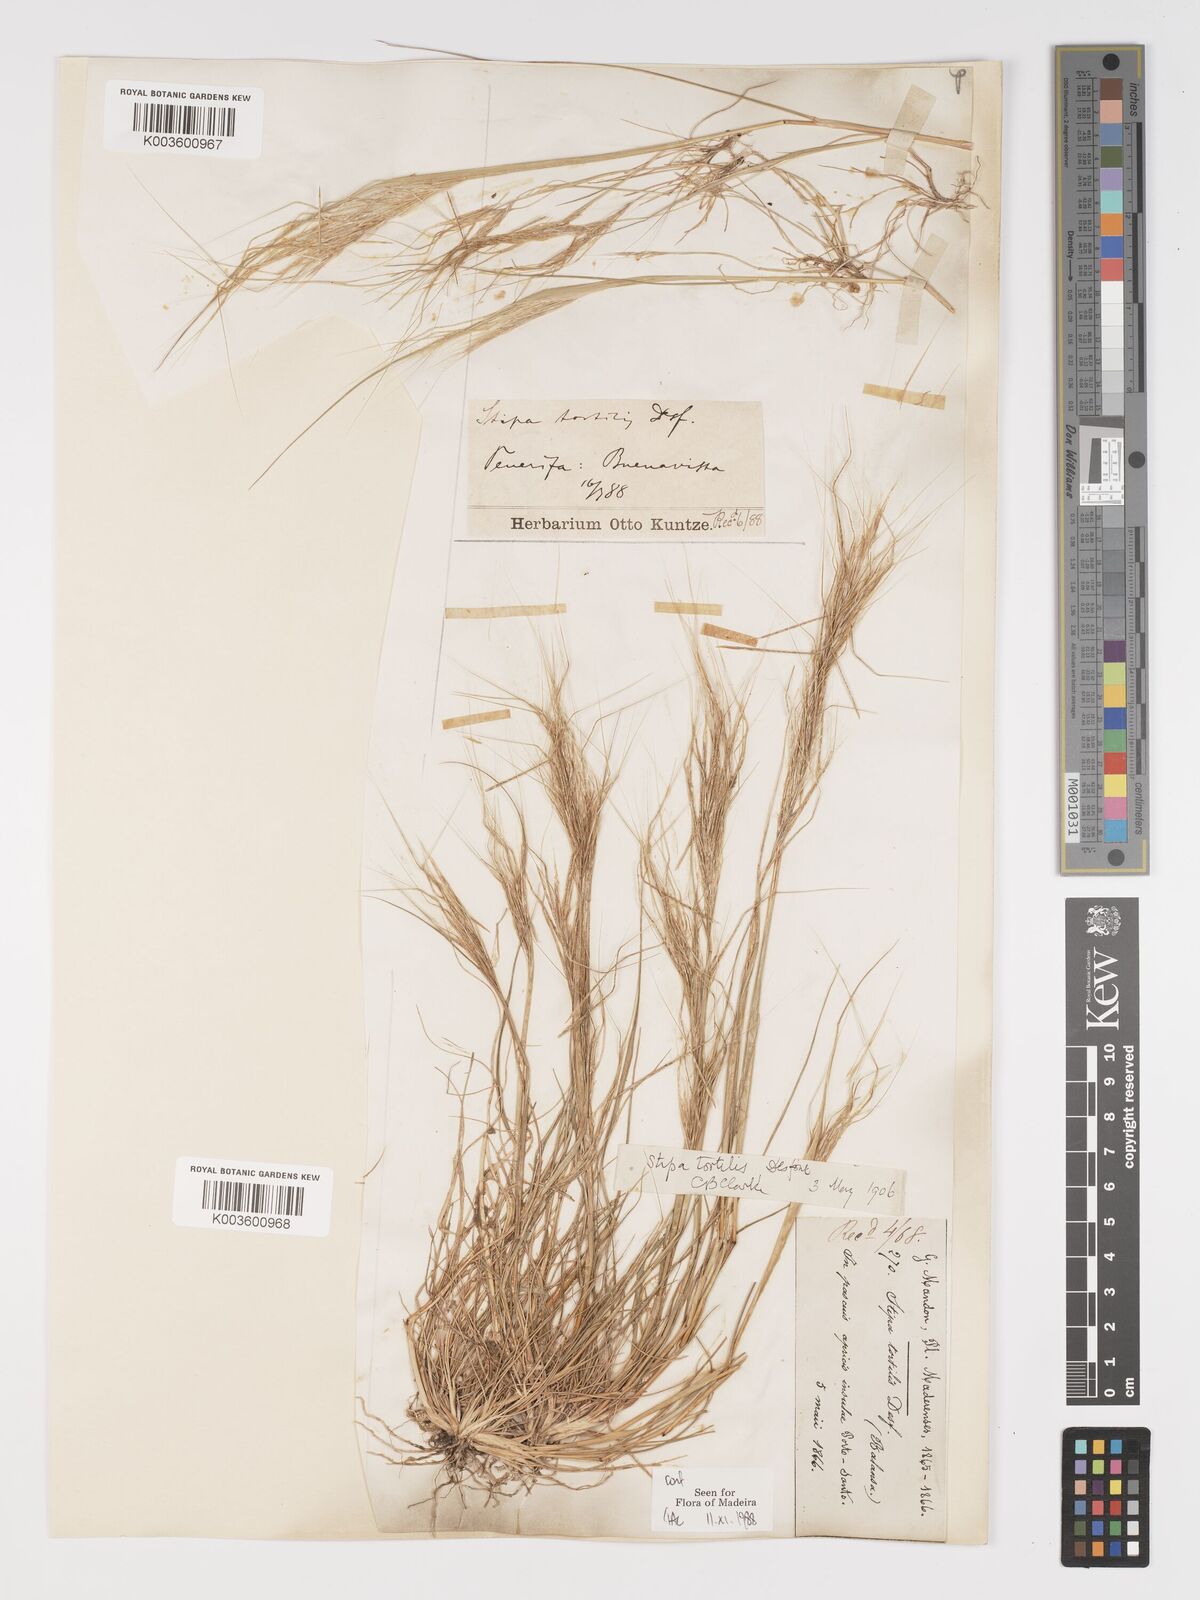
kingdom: Plantae
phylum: Tracheophyta
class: Liliopsida
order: Poales
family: Poaceae
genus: Stipellula
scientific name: Stipellula capensis
